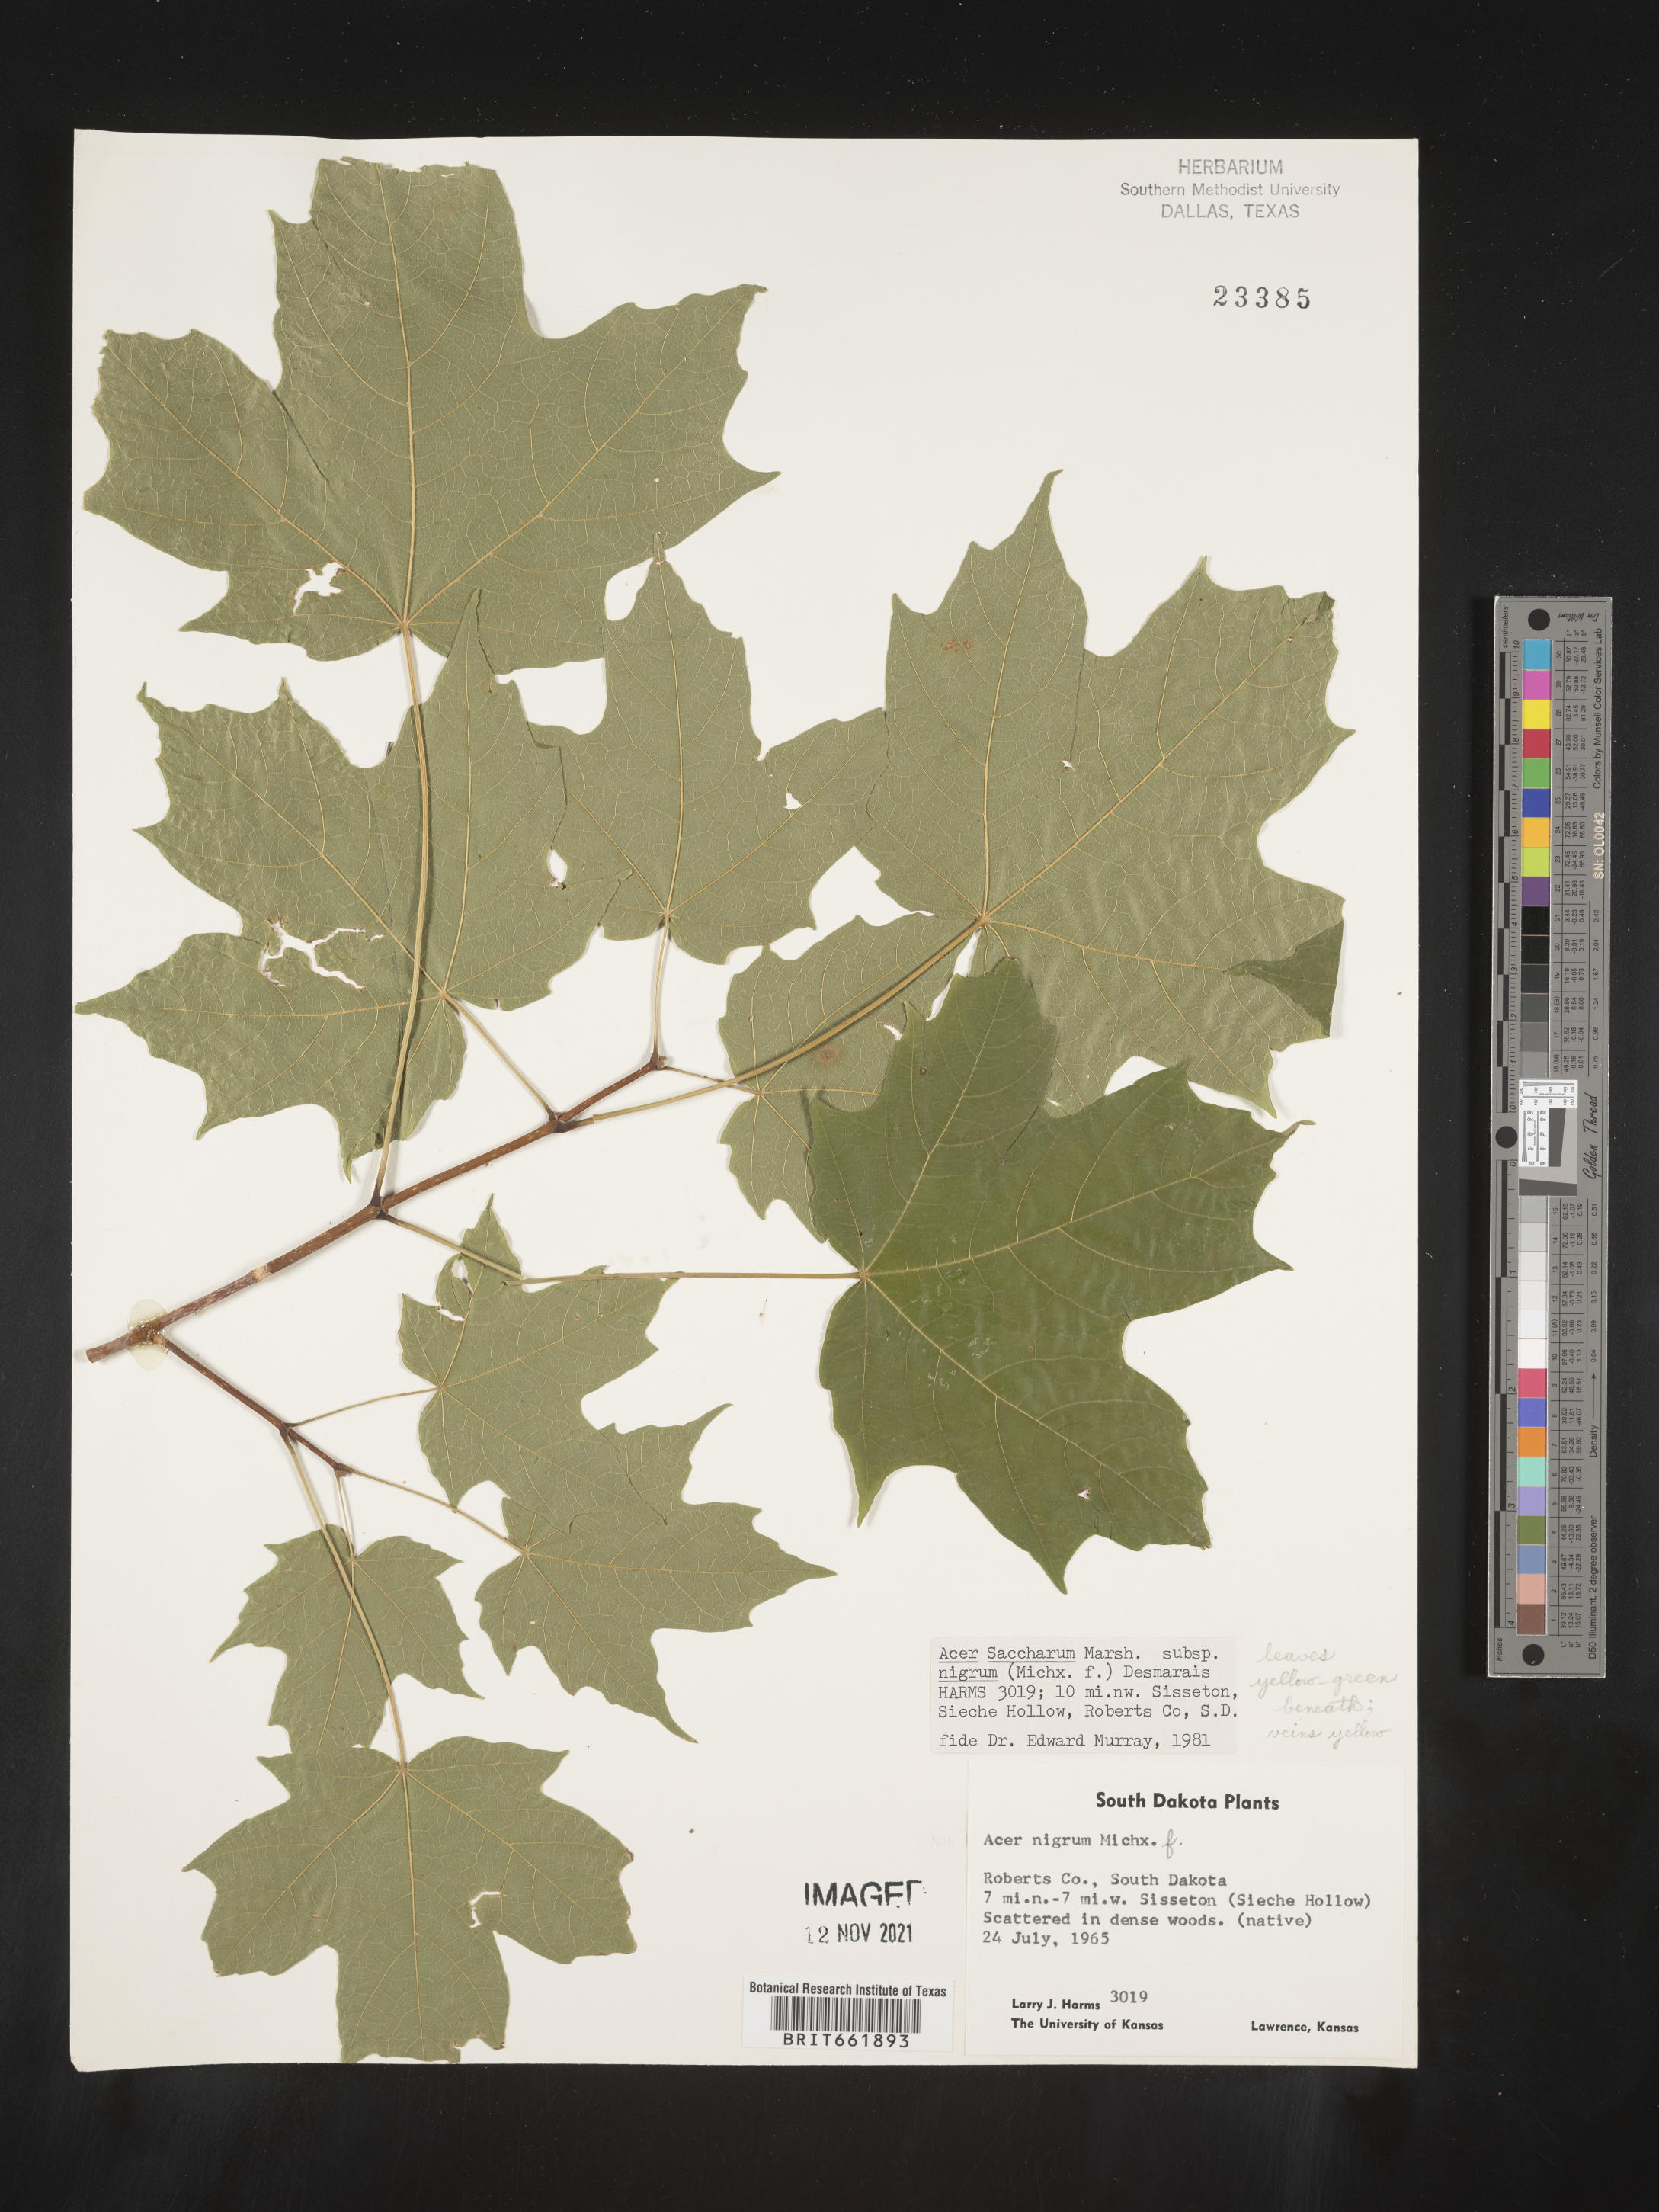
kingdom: Plantae
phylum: Tracheophyta
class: Magnoliopsida
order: Sapindales
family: Sapindaceae
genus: Acer
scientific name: Acer nigrum
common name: Black maple
